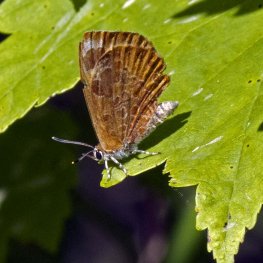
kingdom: Animalia
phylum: Arthropoda
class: Insecta
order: Lepidoptera
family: Lycaenidae
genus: Feniseca
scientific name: Feniseca tarquinius
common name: Harvester
